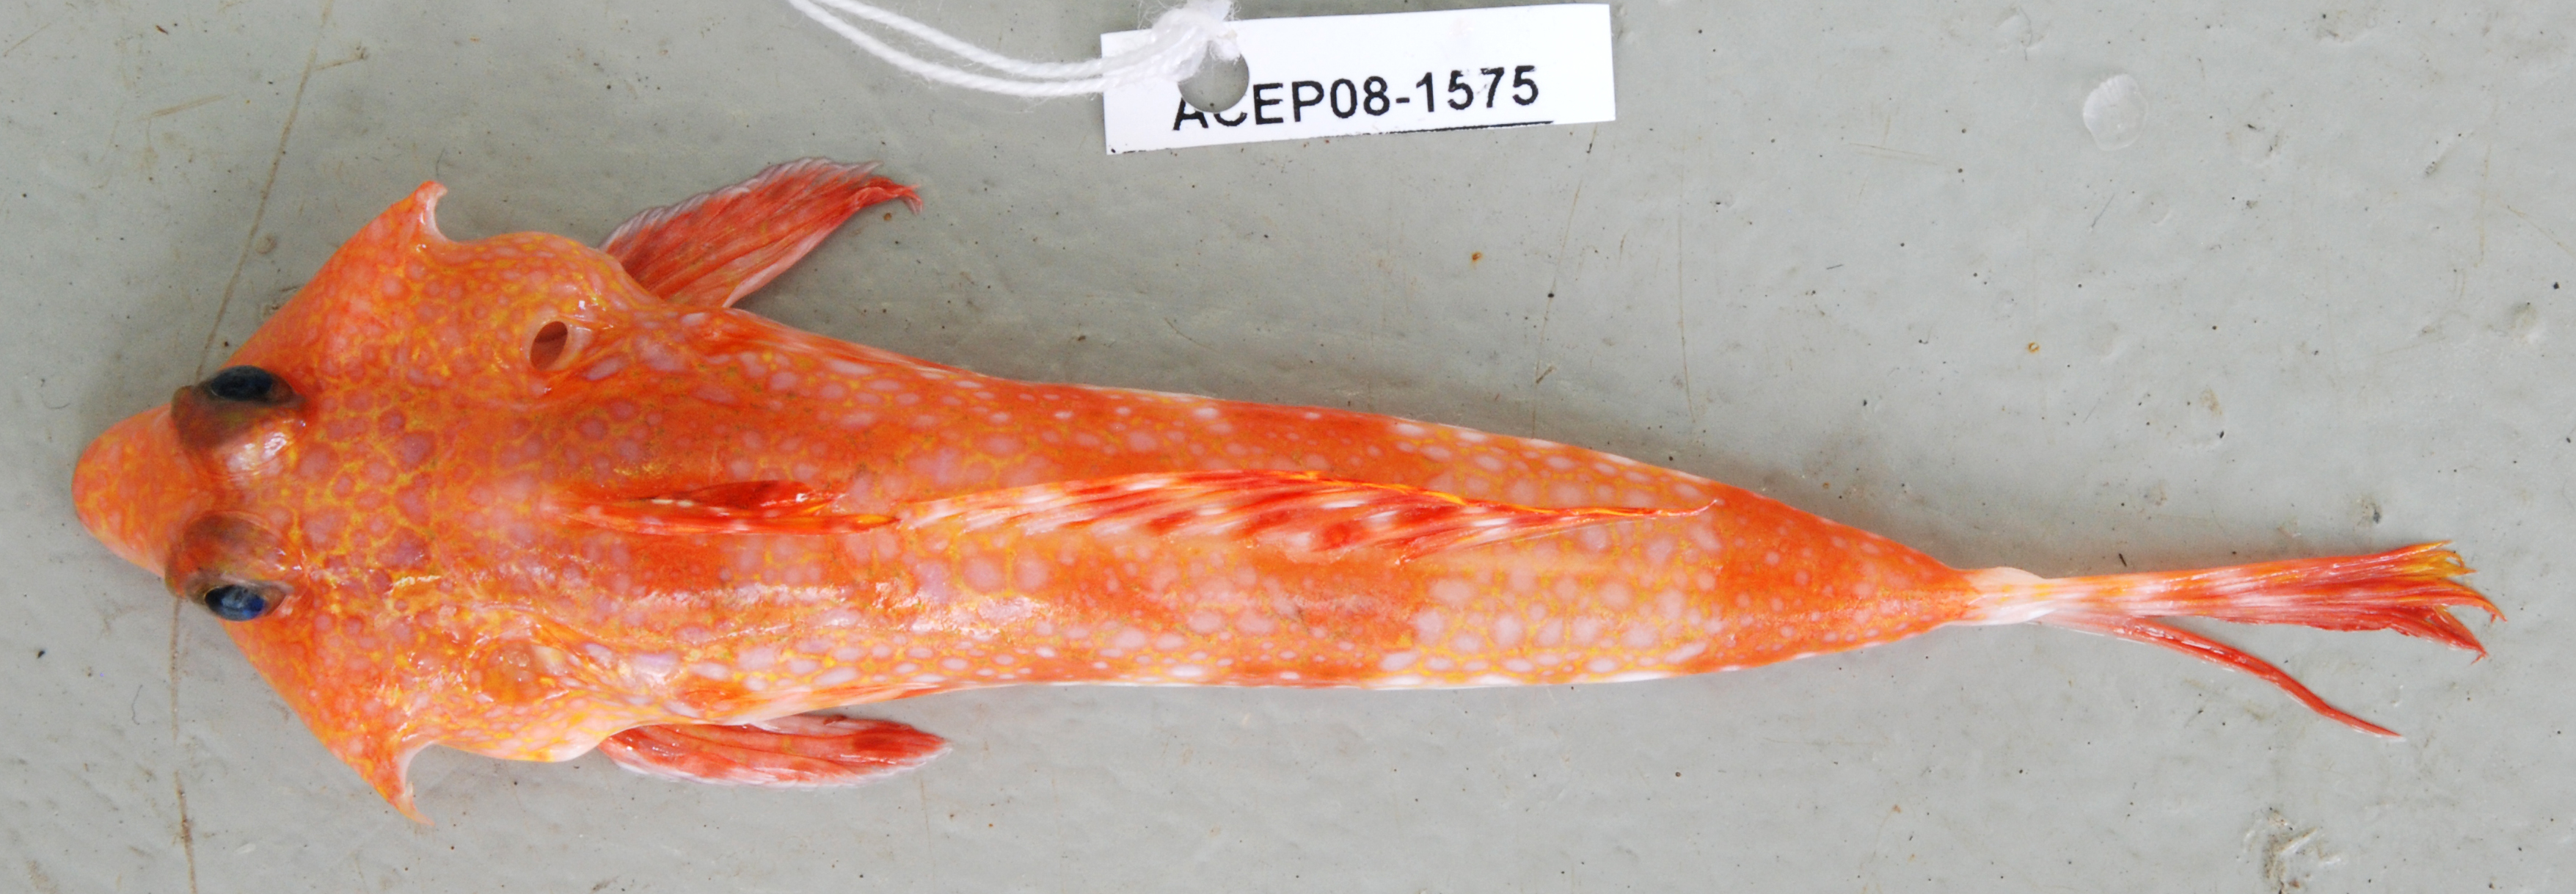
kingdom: Animalia
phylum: Chordata
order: Perciformes
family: Callionymidae
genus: Synchiropus
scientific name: Synchiropus monacanthus
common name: Deep-water dragonet
